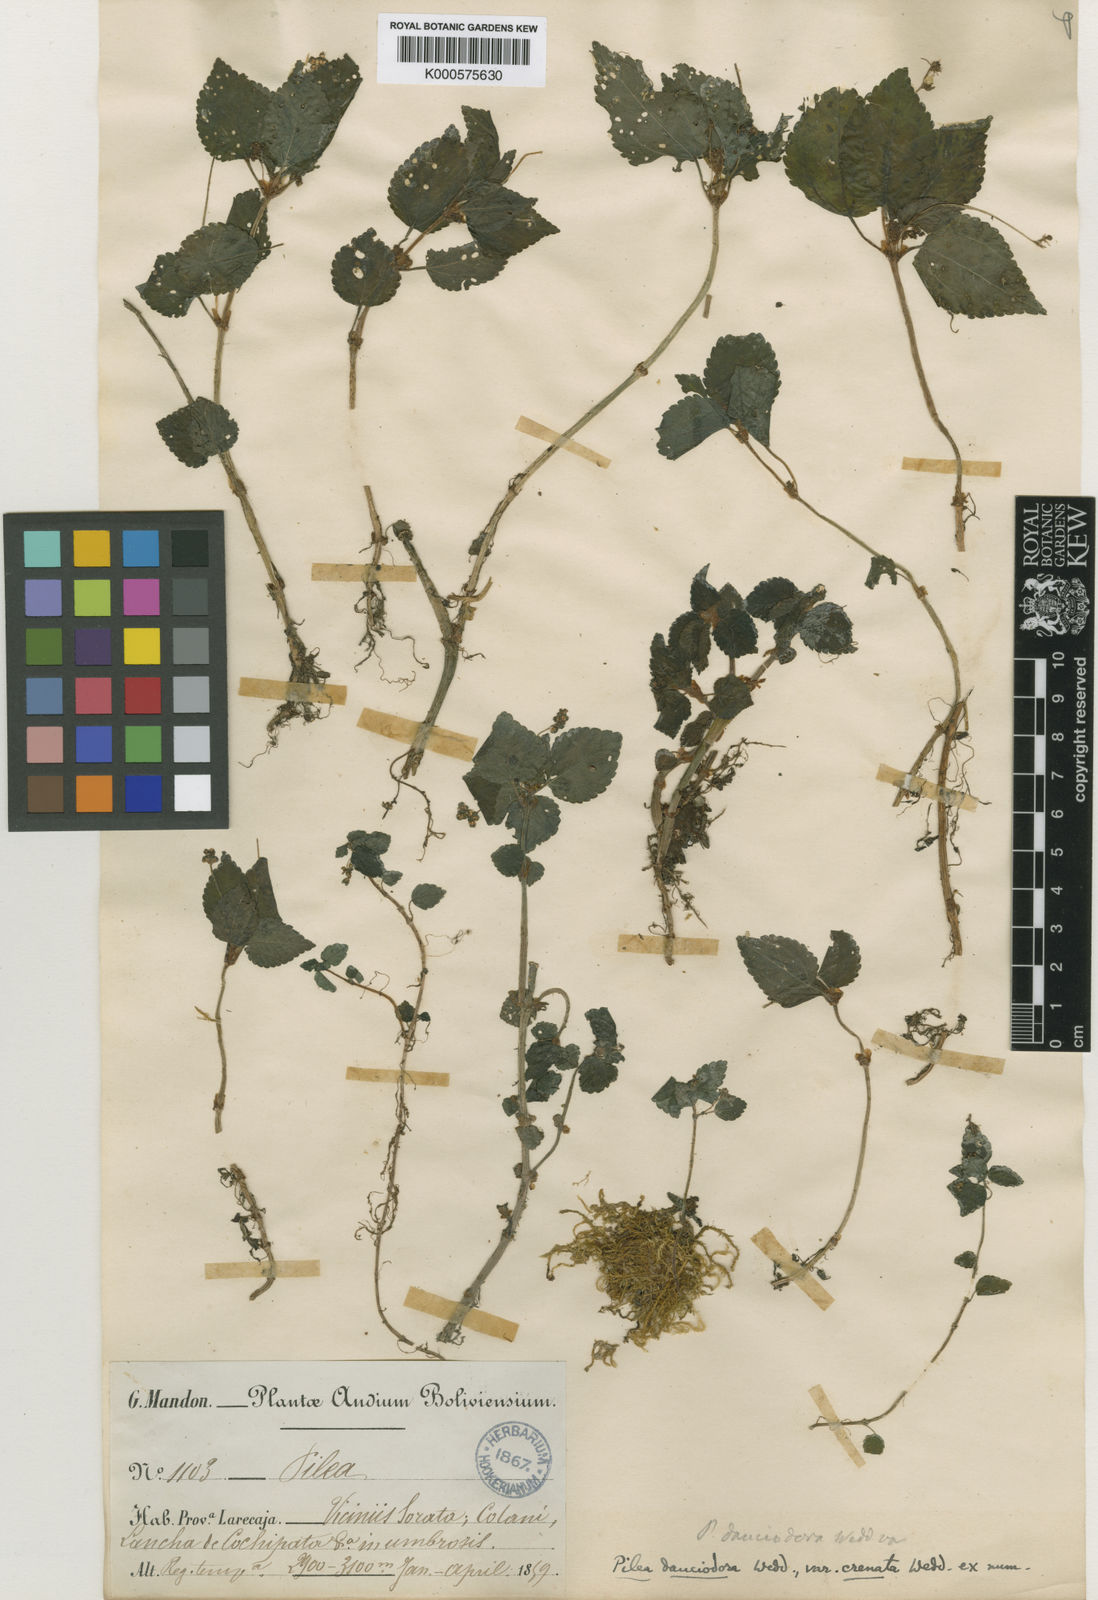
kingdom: Plantae
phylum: Tracheophyta
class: Magnoliopsida
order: Rosales
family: Urticaceae
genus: Pilea
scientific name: Pilea fendleri
